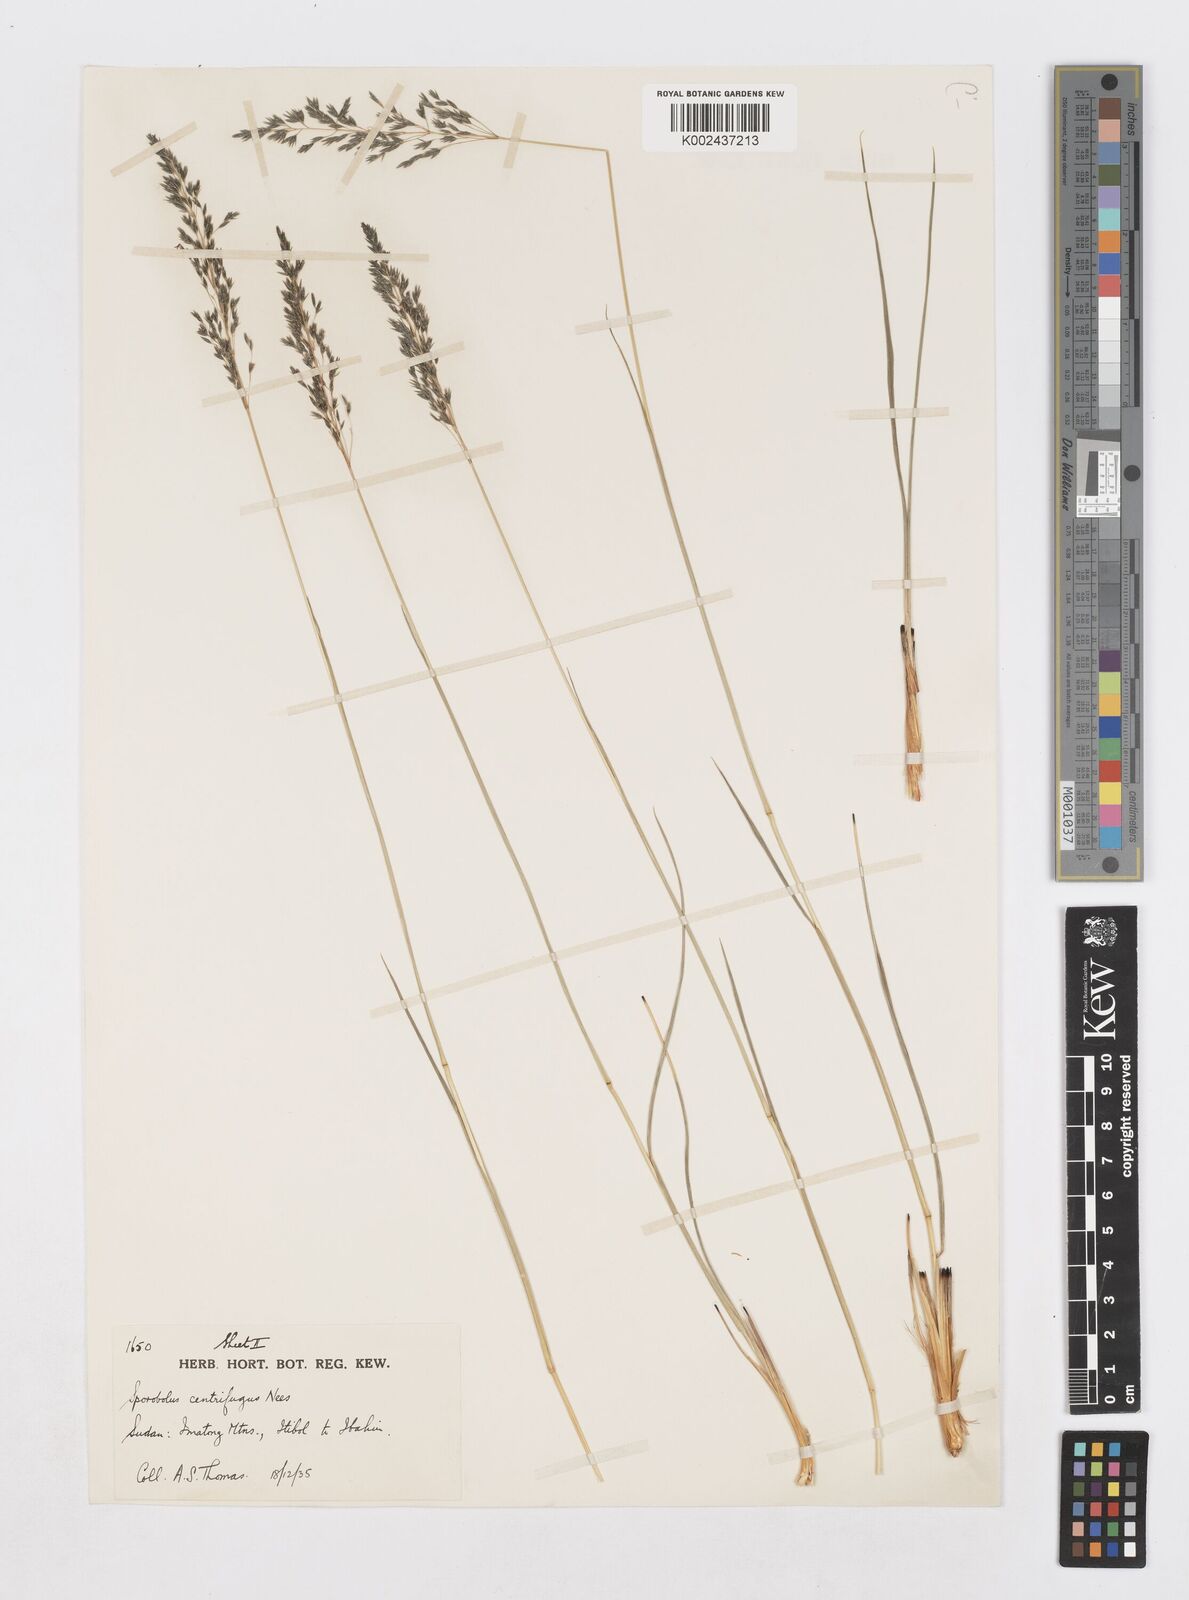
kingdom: Plantae
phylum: Tracheophyta
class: Liliopsida
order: Poales
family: Poaceae
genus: Sporobolus
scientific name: Sporobolus centrifugus
